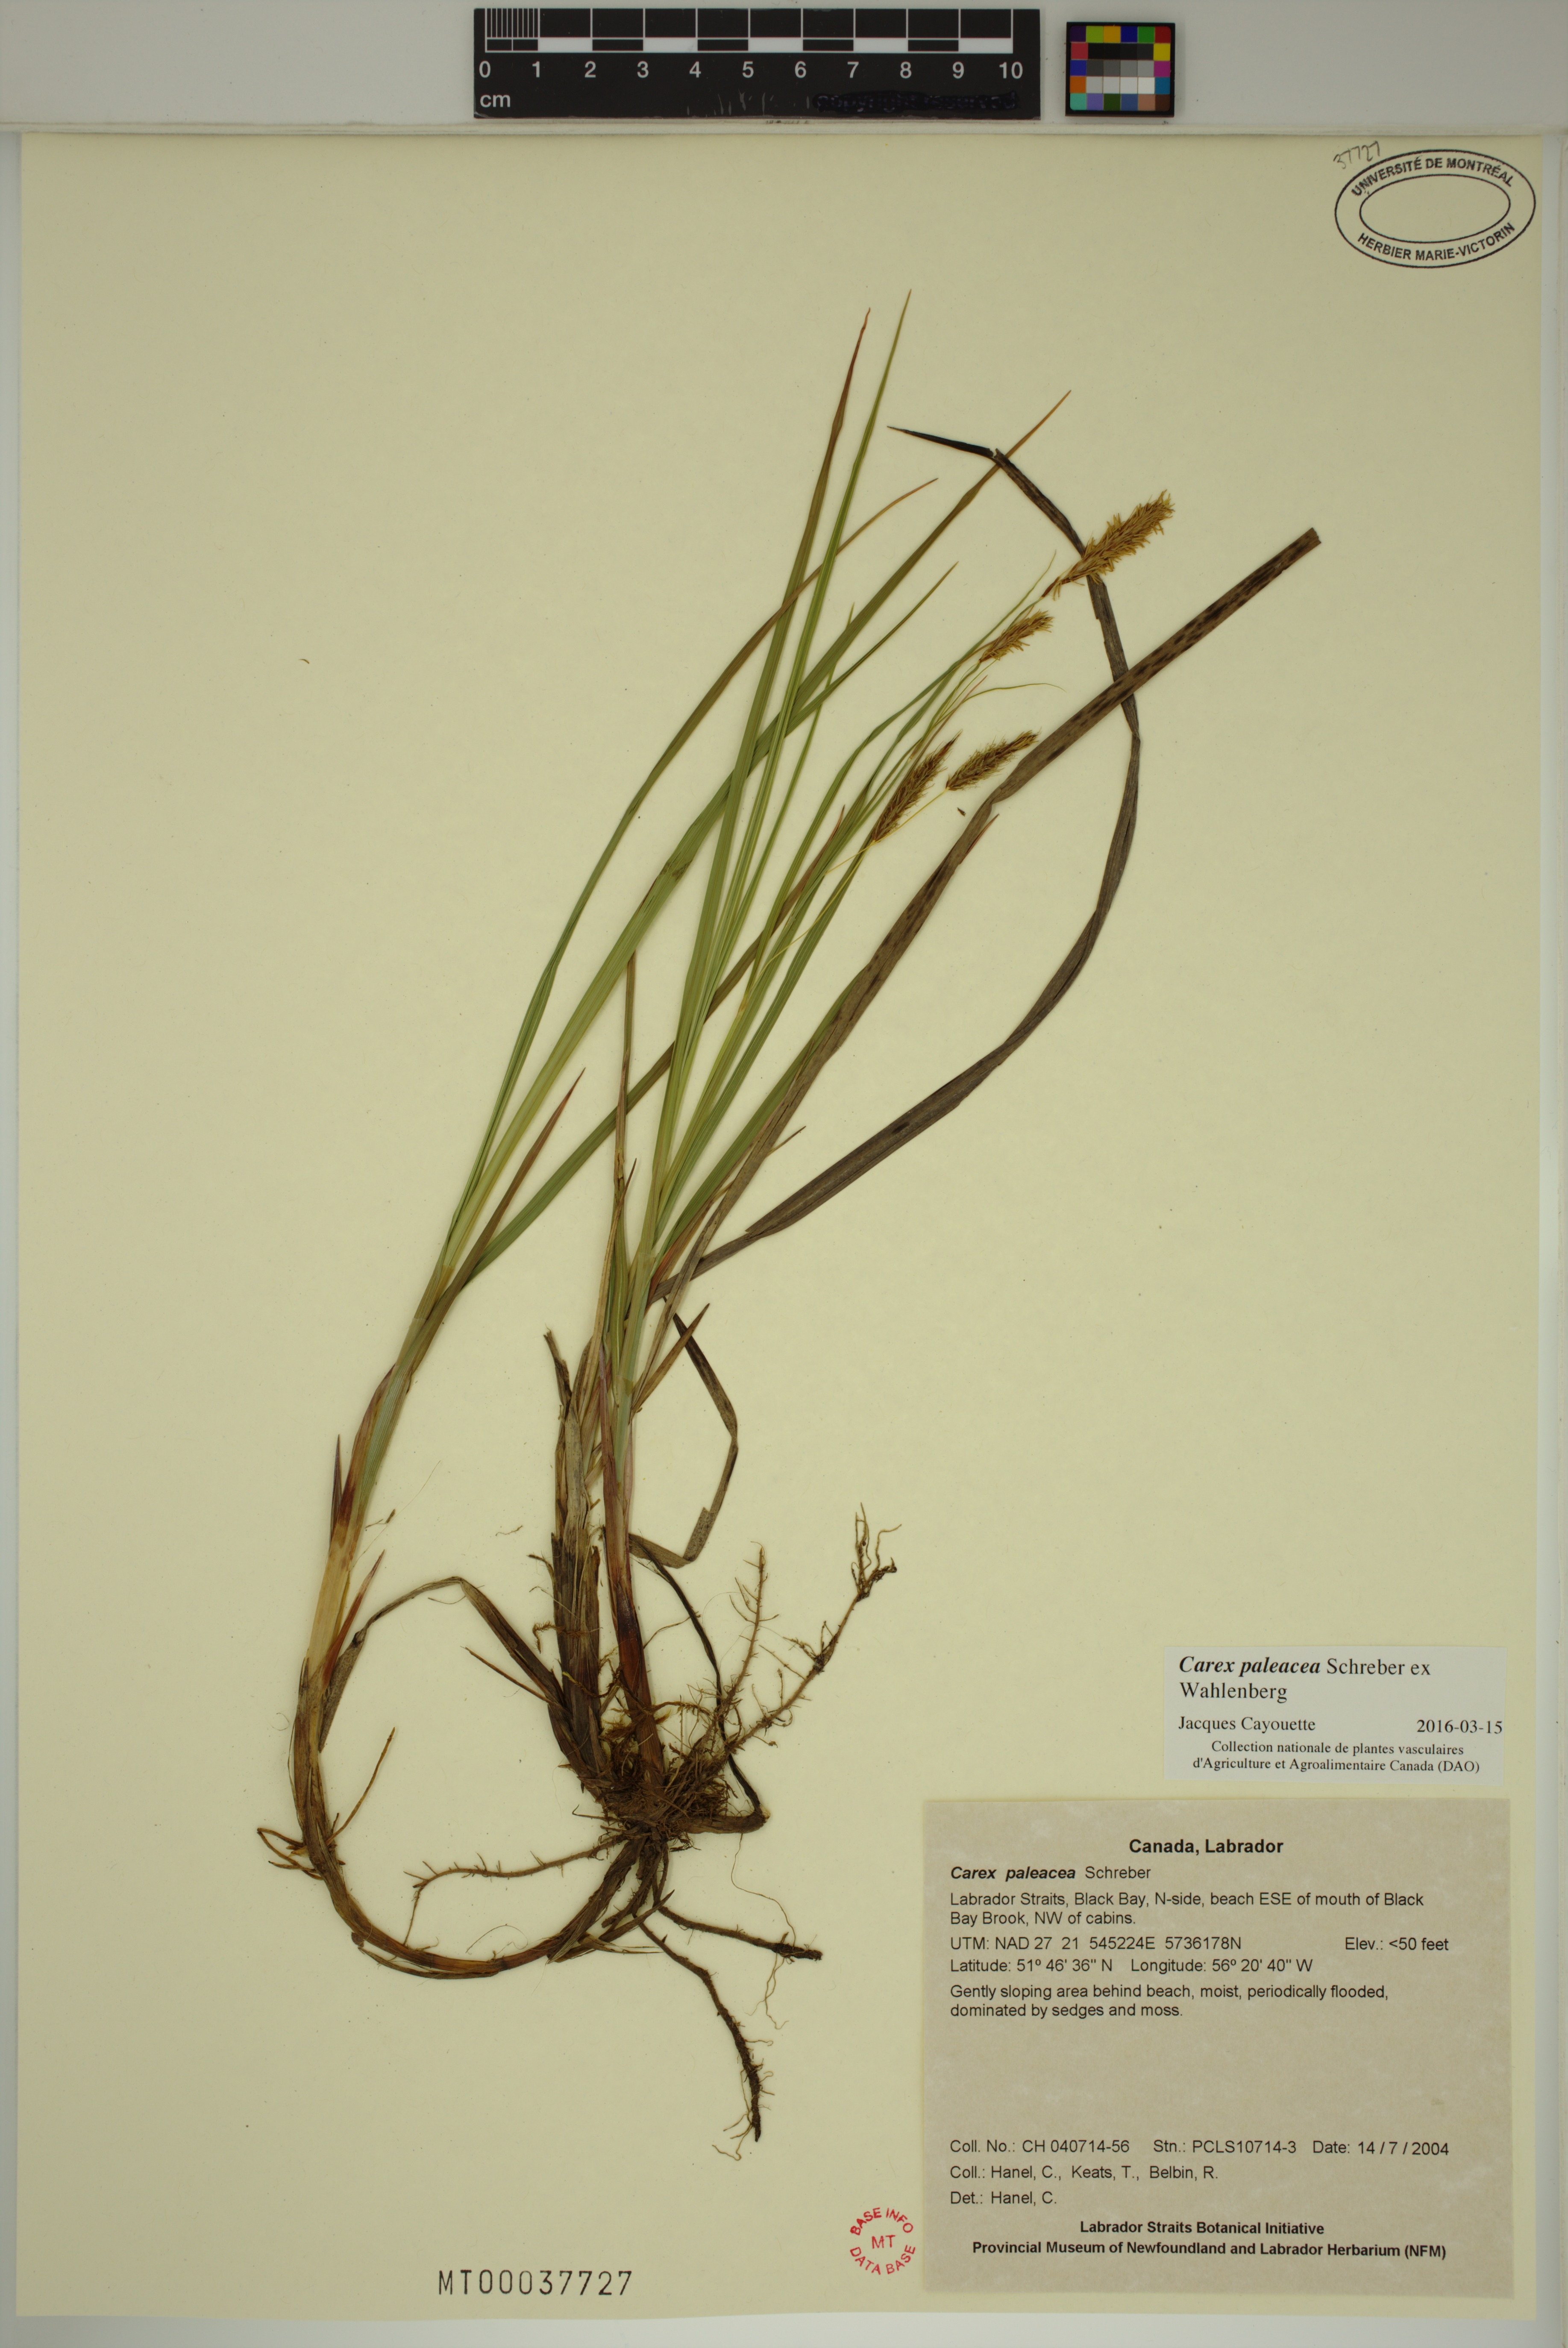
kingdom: Plantae
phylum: Tracheophyta
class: Liliopsida
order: Poales
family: Cyperaceae
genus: Carex
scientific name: Carex paleacea
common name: Chaffy sedge
